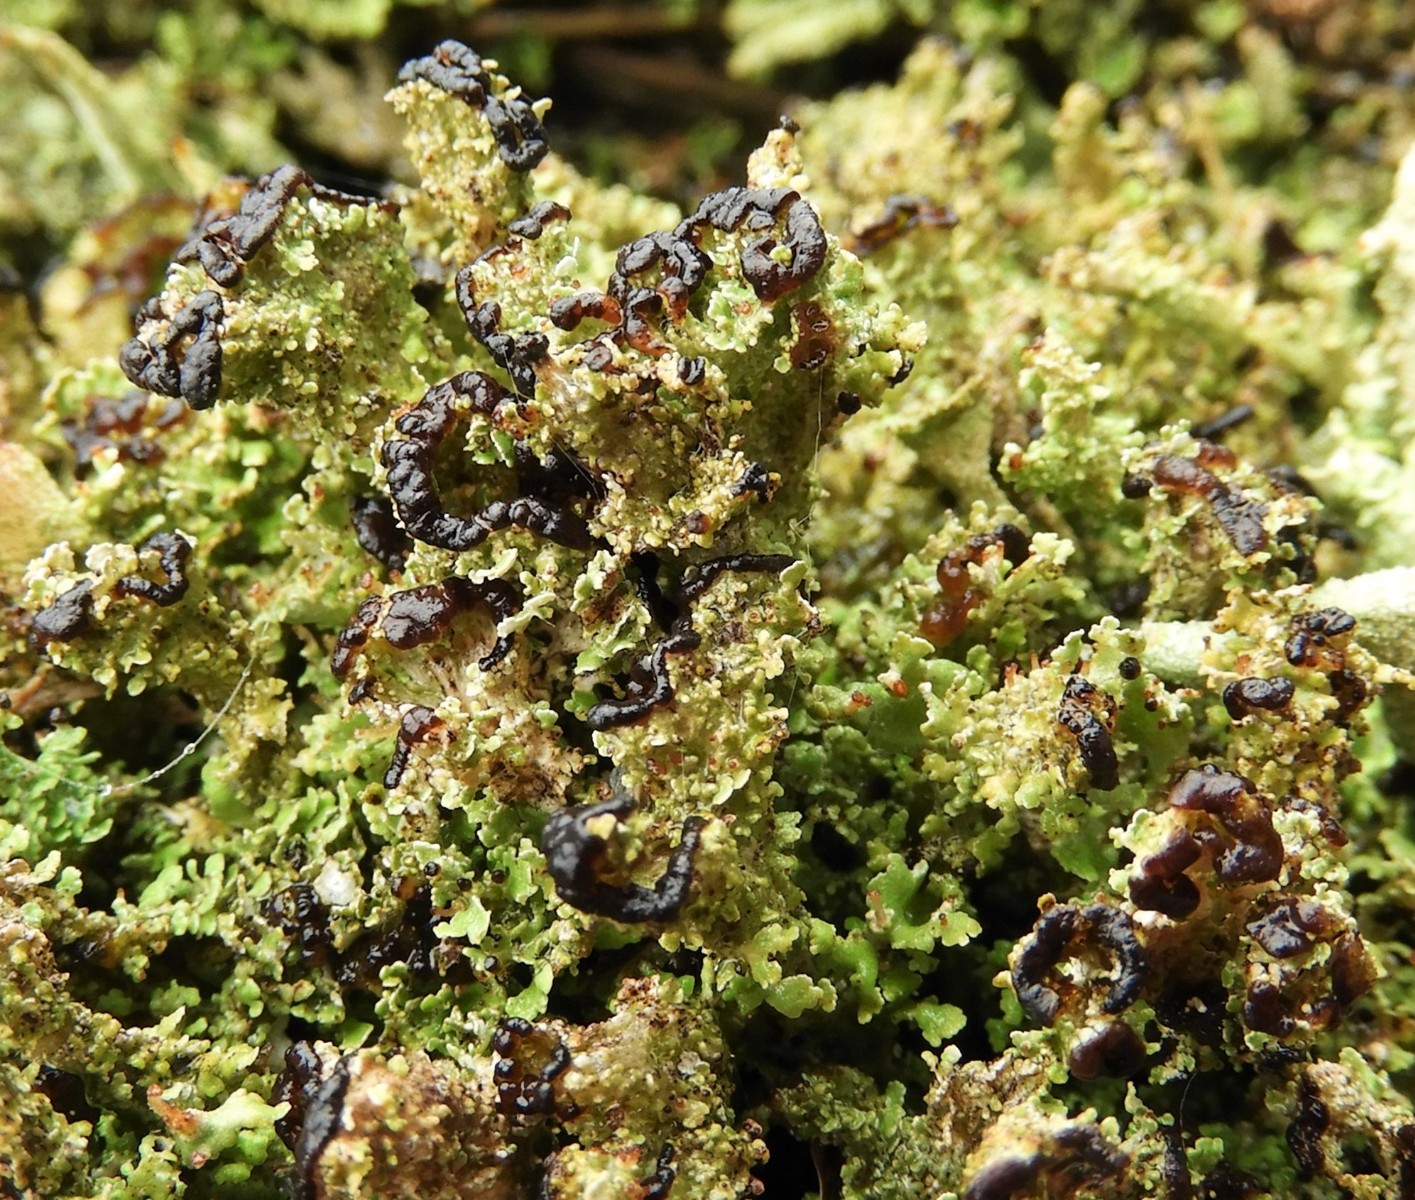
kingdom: Fungi
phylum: Ascomycota
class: Lecanoromycetes
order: Lecanorales
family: Cladoniaceae
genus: Cladonia
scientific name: Cladonia ramulosa
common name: kliddet bægerlav
